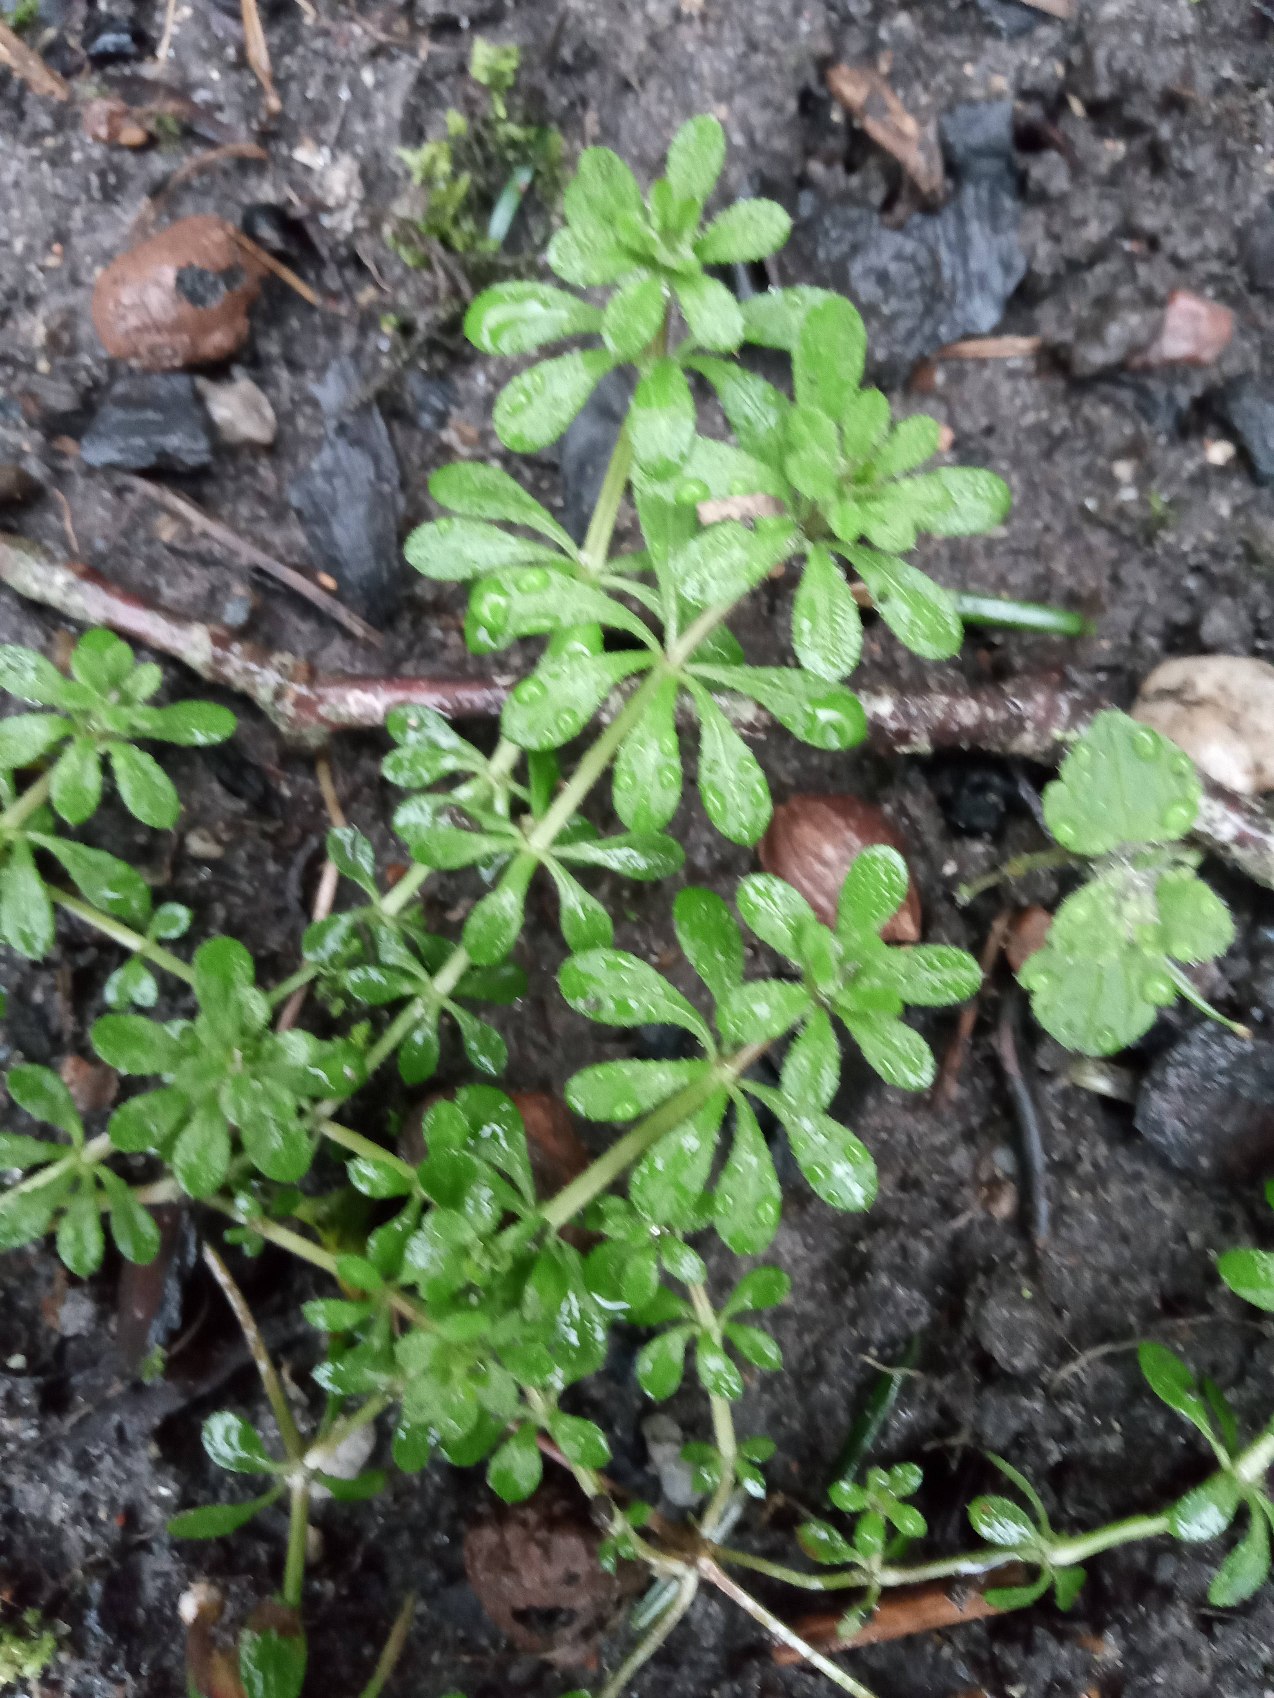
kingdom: Plantae
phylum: Tracheophyta
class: Magnoliopsida
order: Gentianales
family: Rubiaceae
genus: Galium
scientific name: Galium aparine
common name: Burre-snerre
